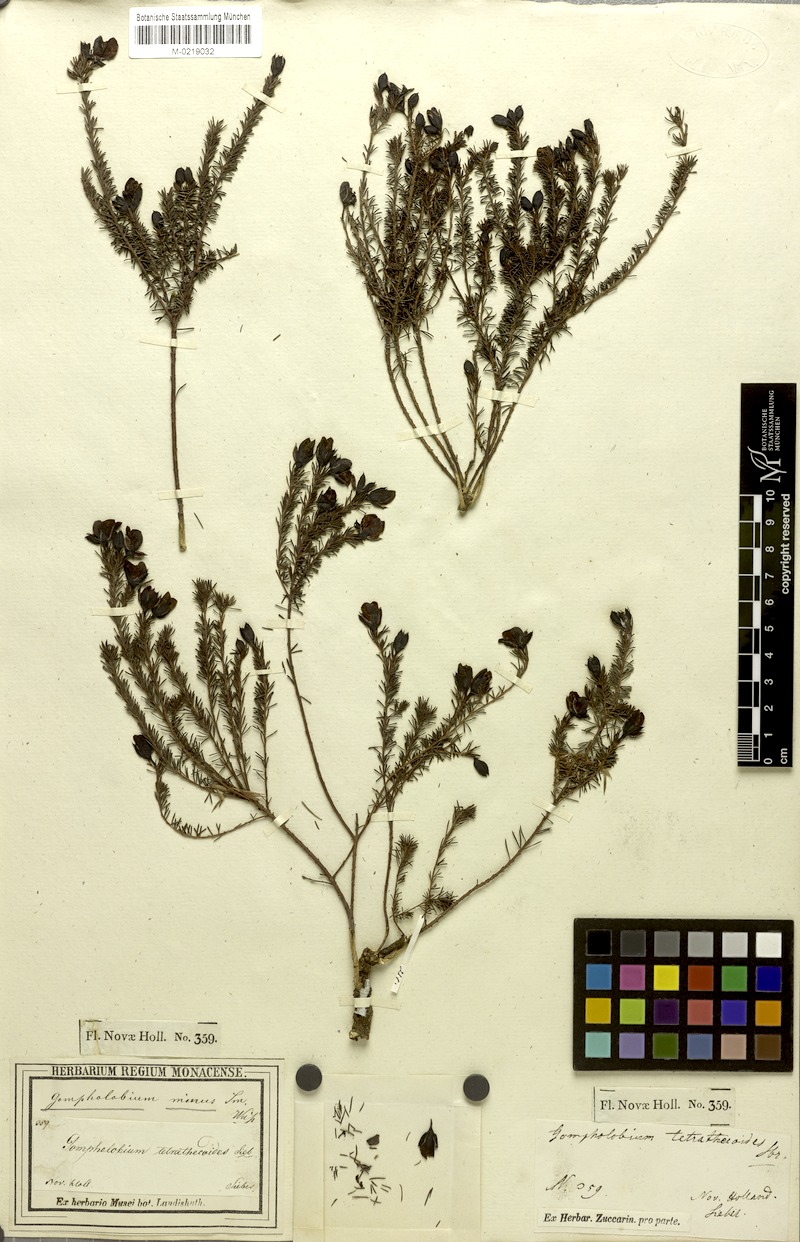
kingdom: Plantae
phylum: Tracheophyta
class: Magnoliopsida
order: Fabales
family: Fabaceae
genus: Gompholobium
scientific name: Gompholobium minus
